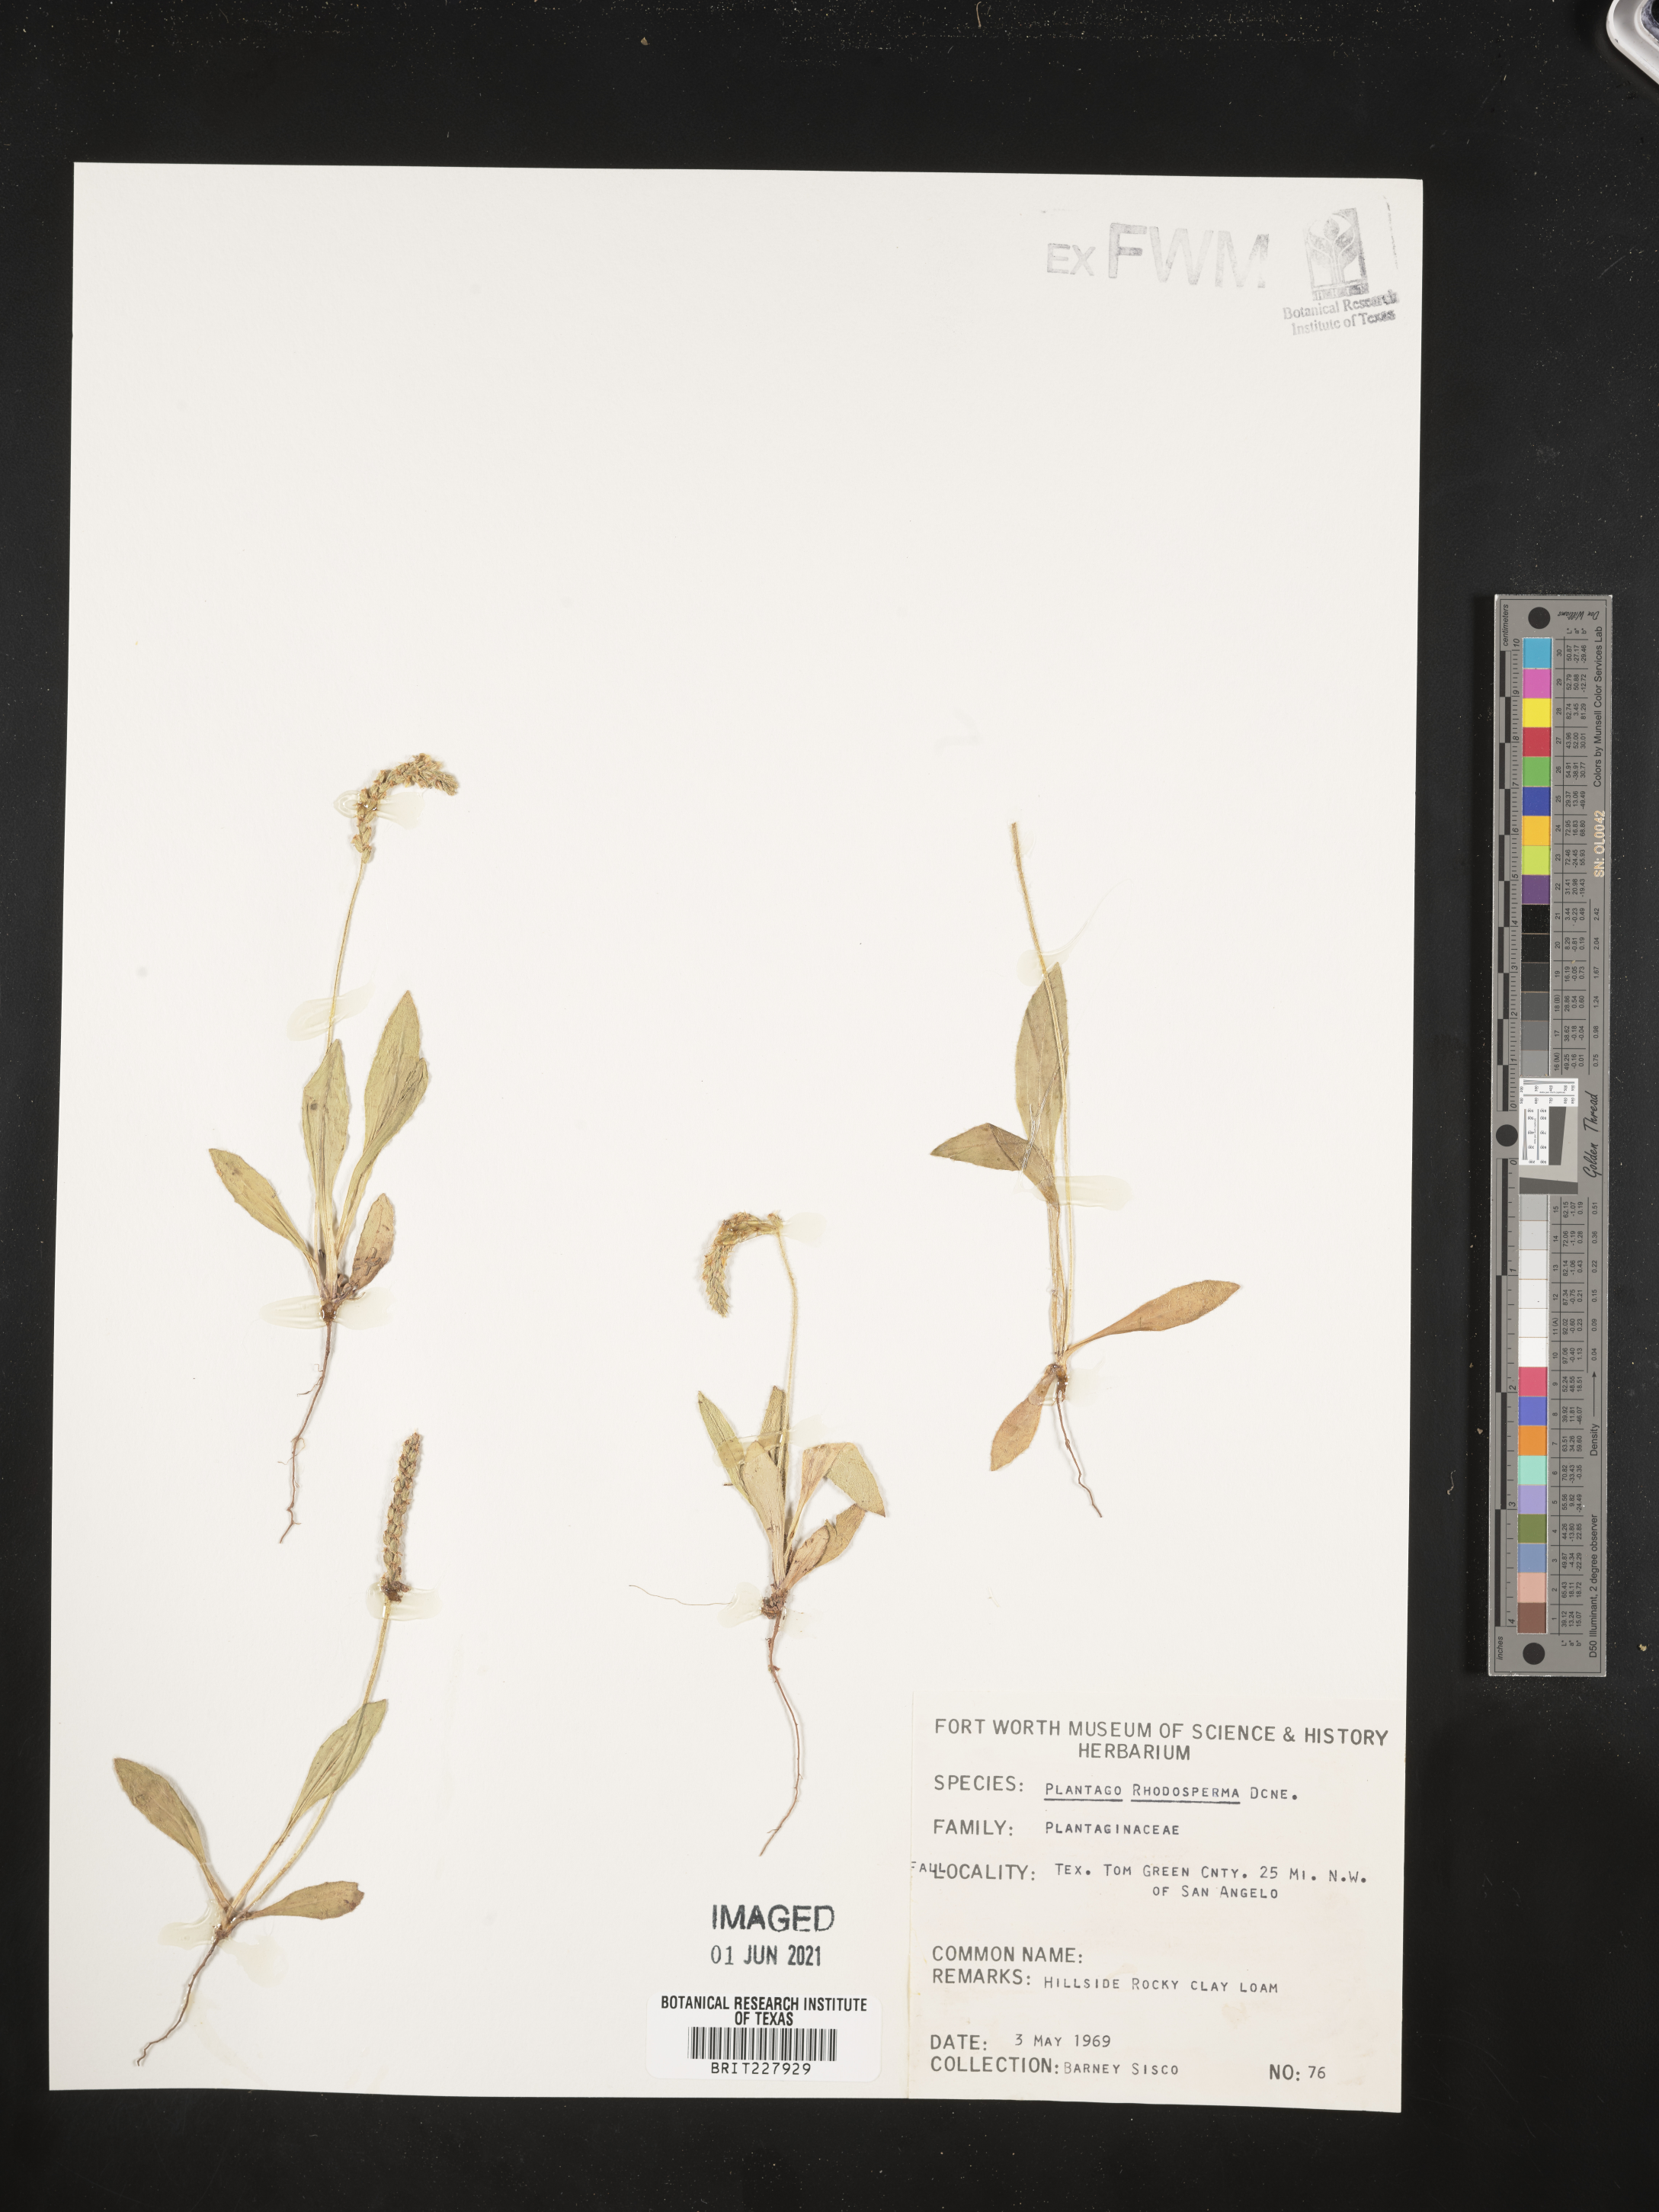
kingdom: Plantae
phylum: Tracheophyta
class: Magnoliopsida
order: Lamiales
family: Plantaginaceae
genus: Plantago
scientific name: Plantago rhodosperma
